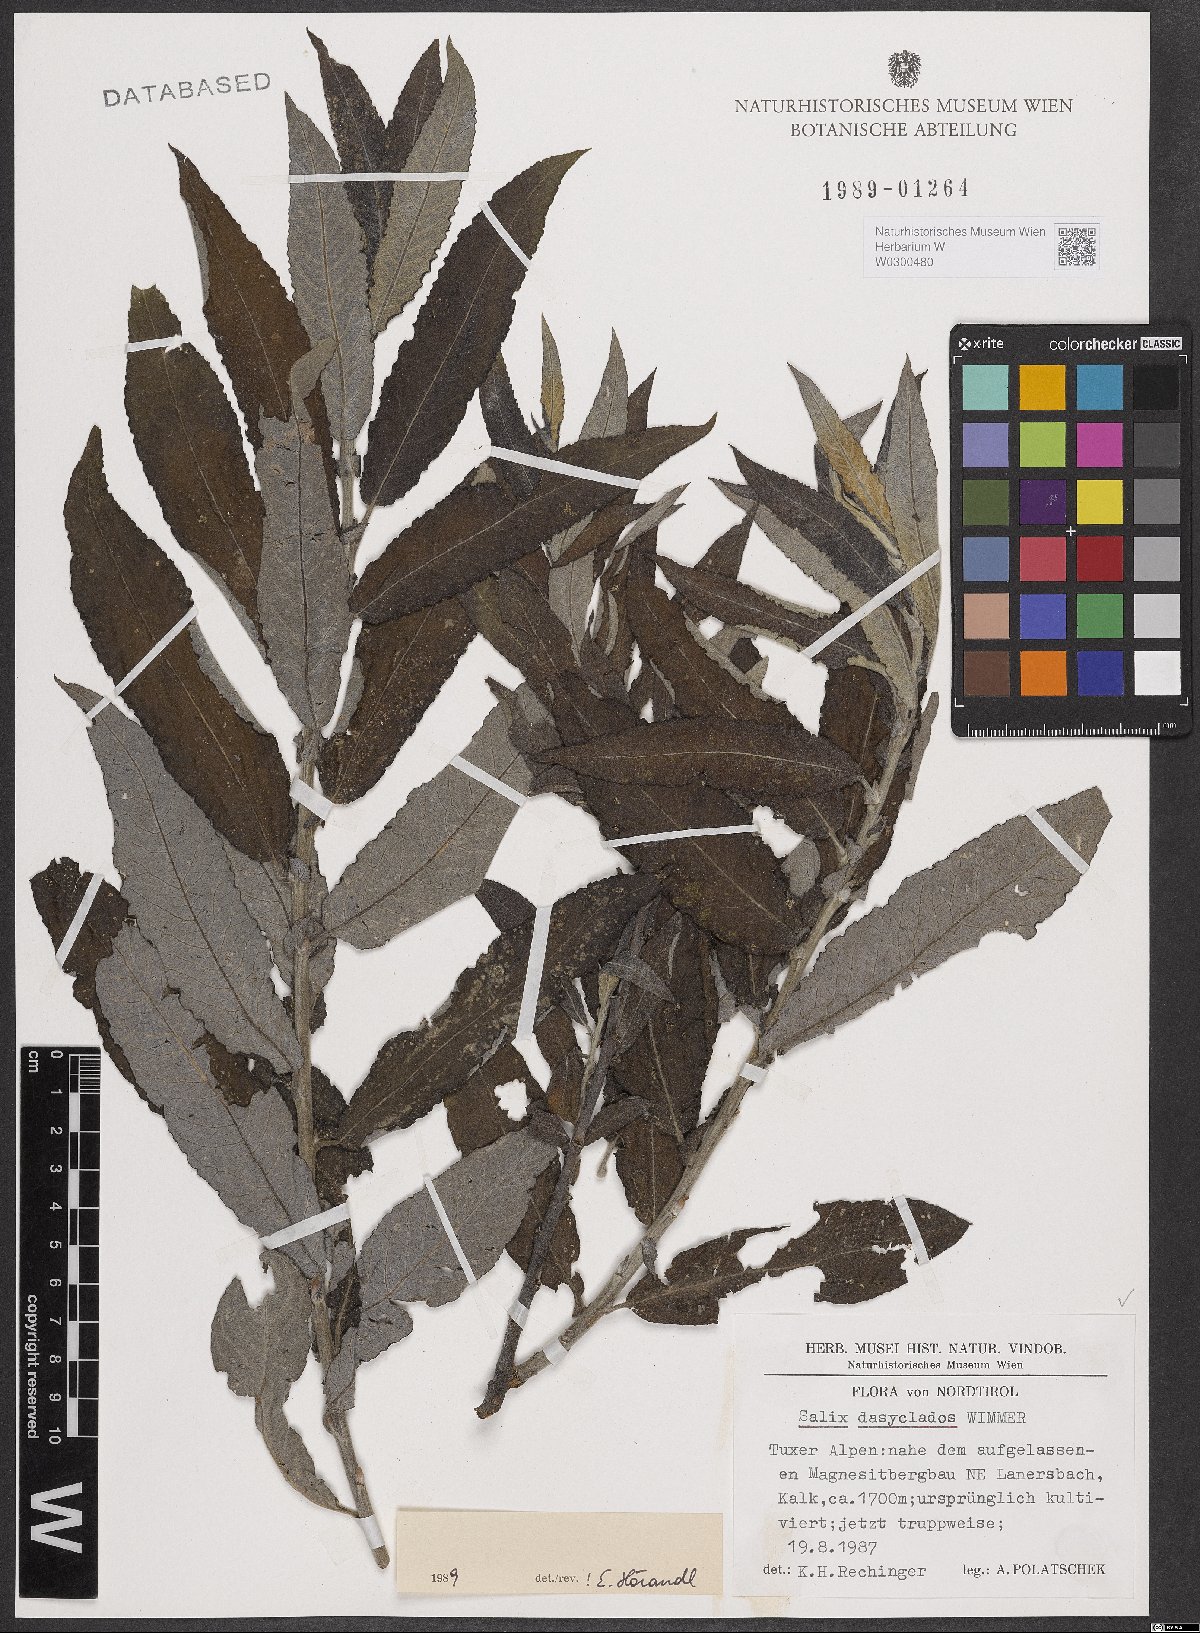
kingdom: Plantae
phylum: Tracheophyta
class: Magnoliopsida
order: Malpighiales
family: Salicaceae
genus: Salix
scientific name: Salix gmelinii
